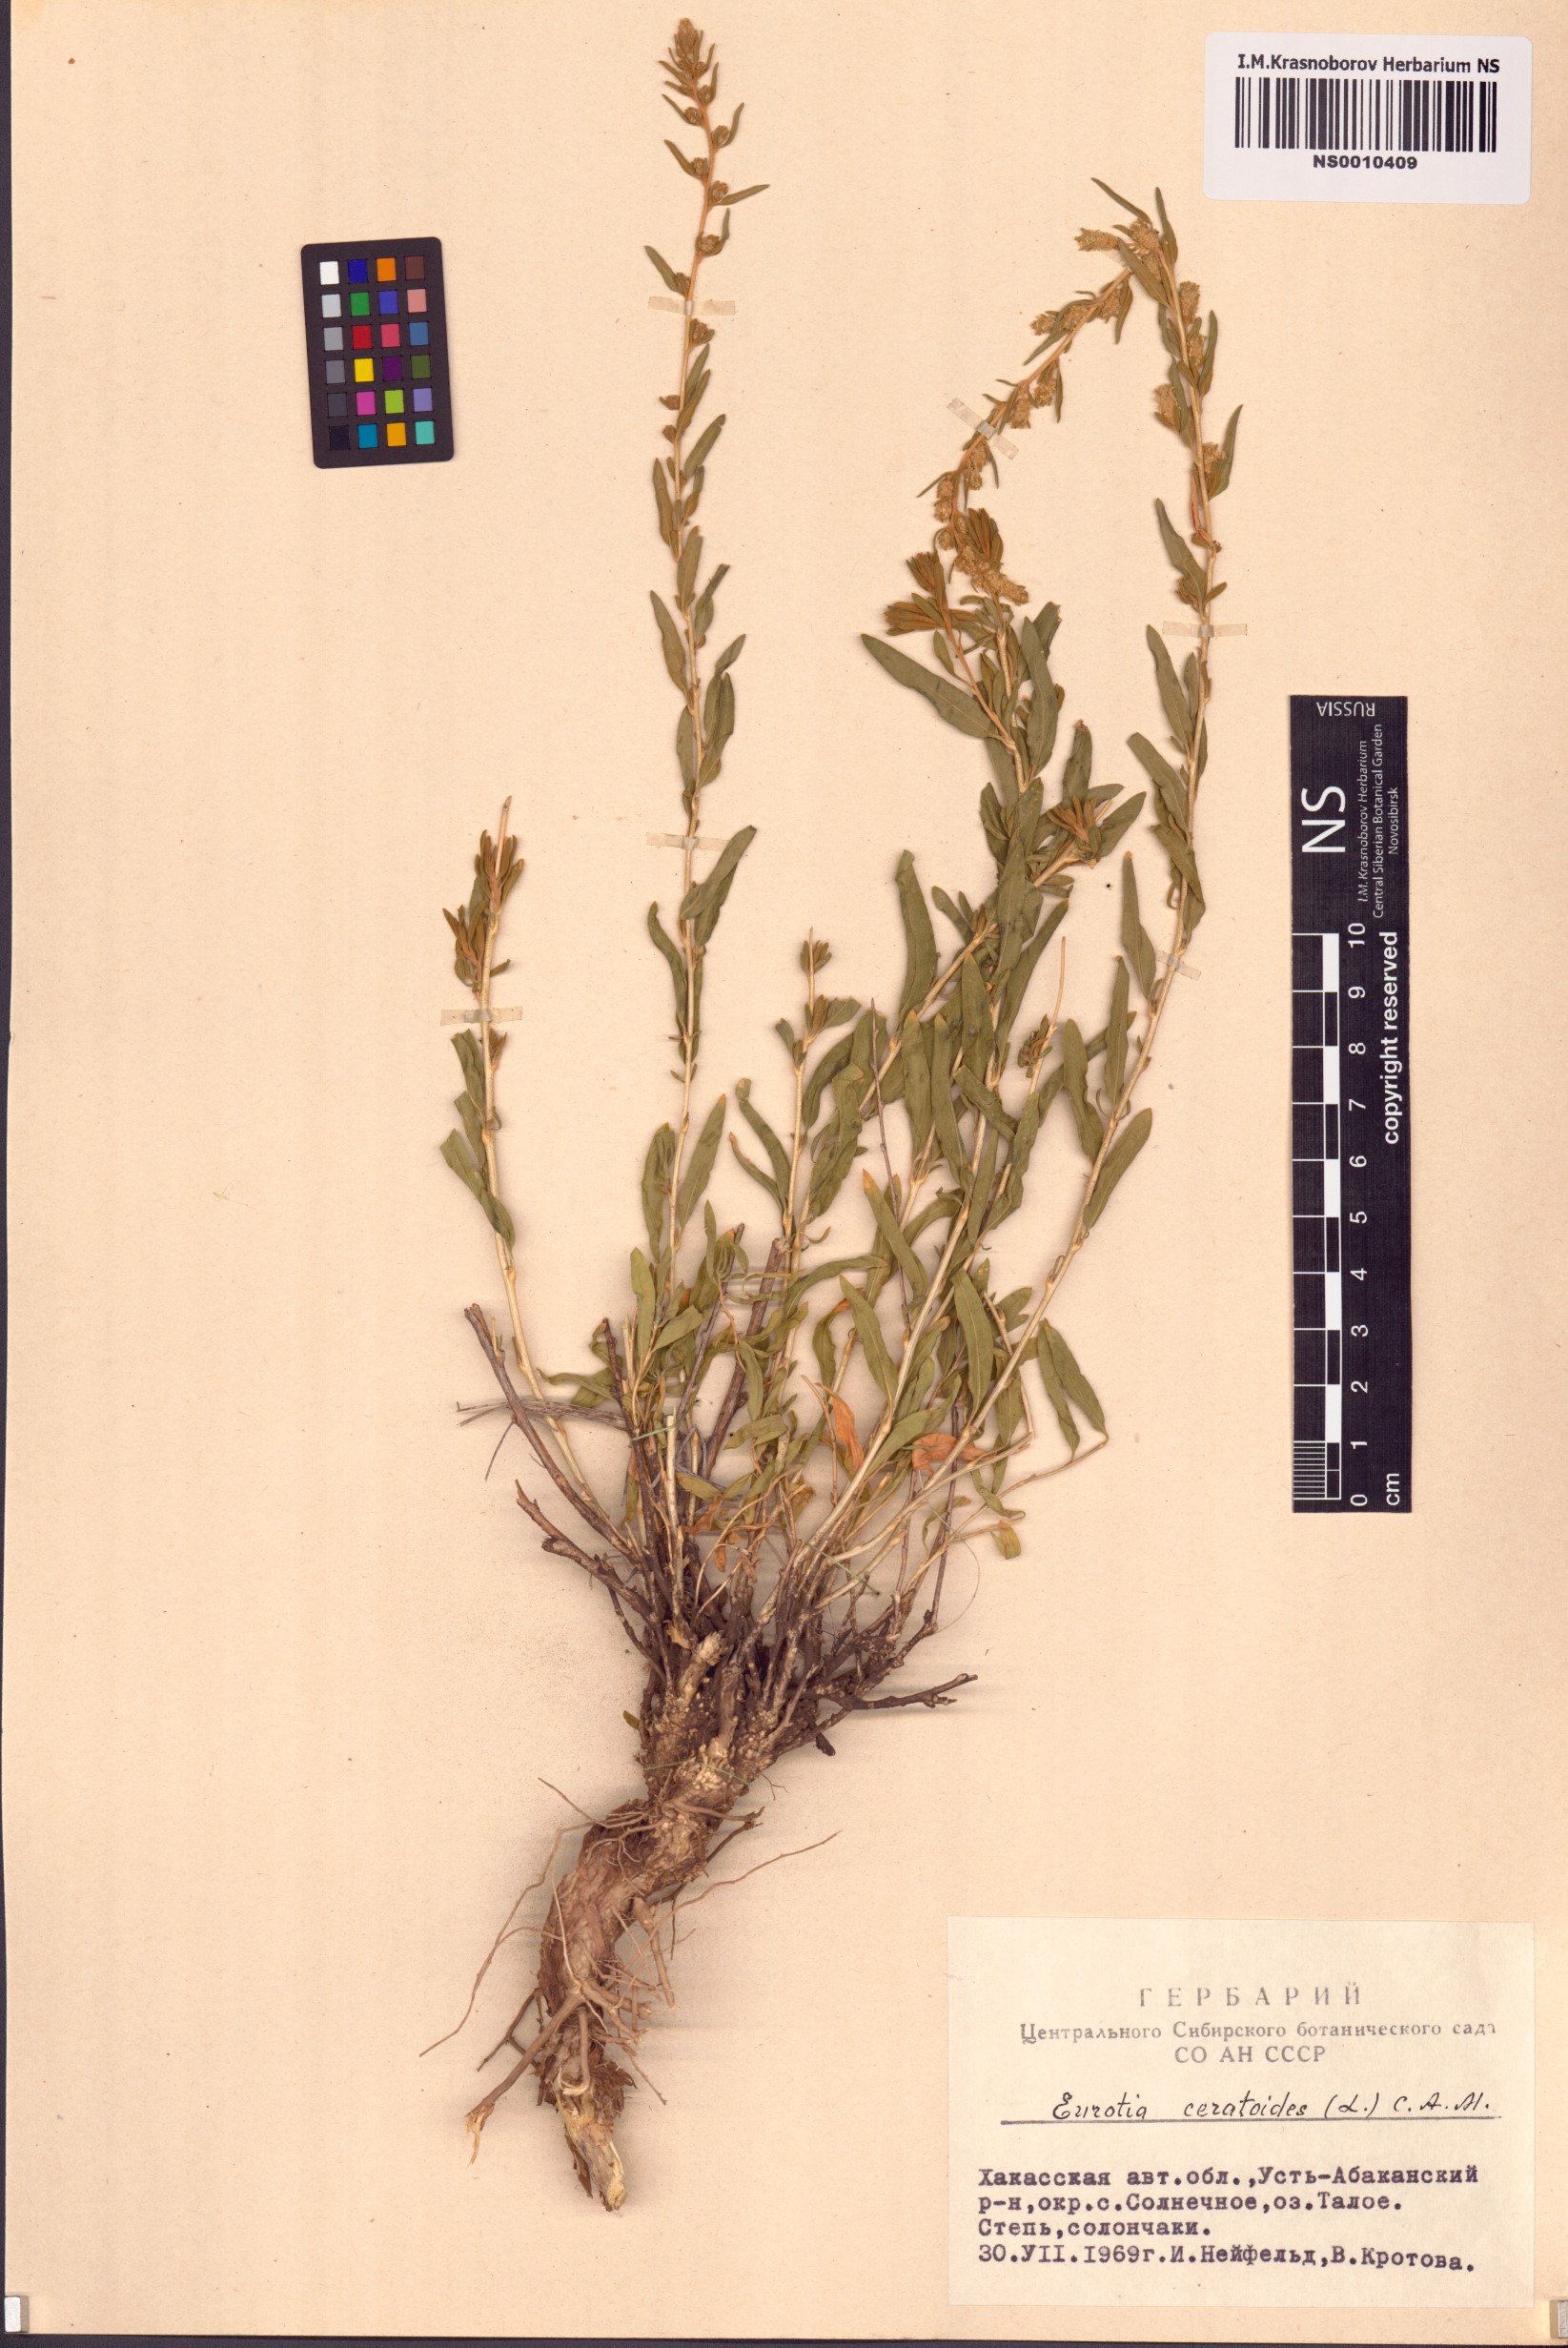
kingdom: Plantae
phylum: Tracheophyta
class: Magnoliopsida
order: Caryophyllales
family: Amaranthaceae
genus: Krascheninnikovia
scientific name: Krascheninnikovia ceratoides
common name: Pamirian winterfat
